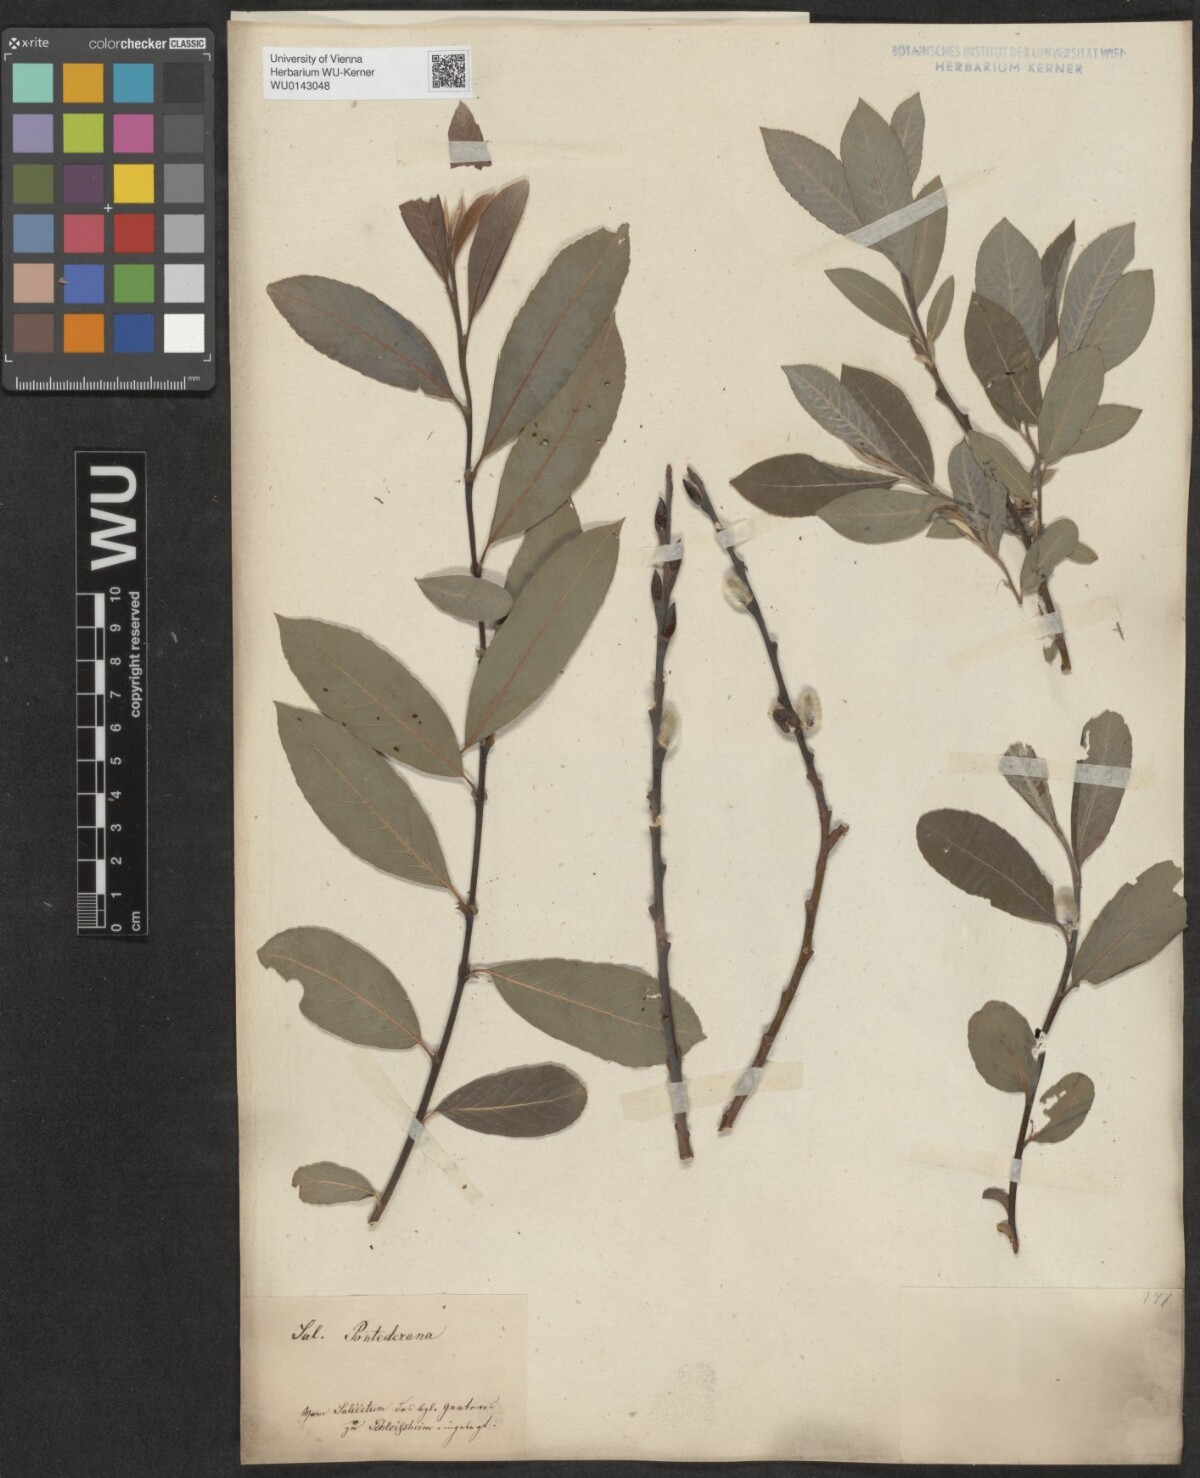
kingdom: Plantae
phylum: Tracheophyta
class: Magnoliopsida
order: Malpighiales
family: Salicaceae
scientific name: Salicaceae
